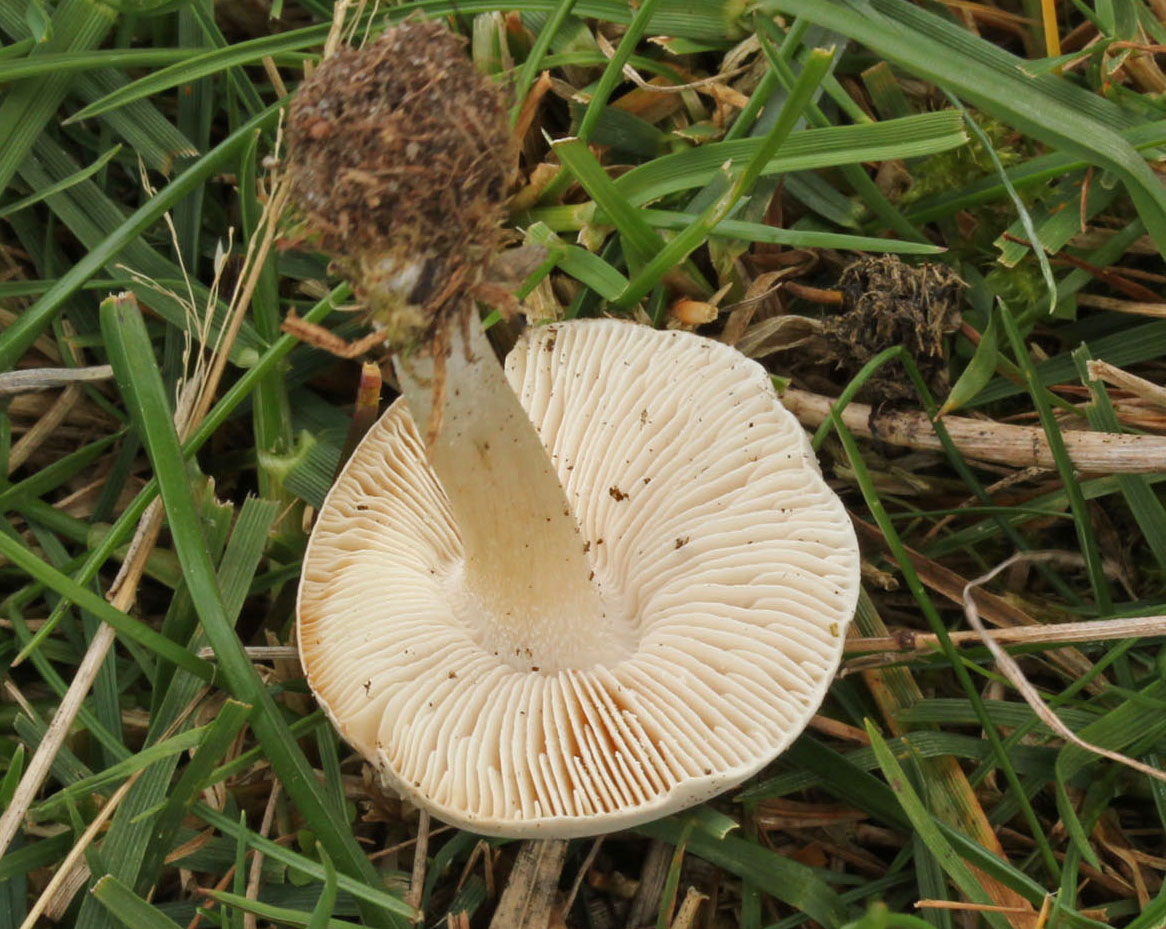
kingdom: Fungi
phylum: Basidiomycota
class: Agaricomycetes
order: Agaricales
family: Tricholomataceae
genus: Melanoleuca
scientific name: Melanoleuca
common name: munkehat
